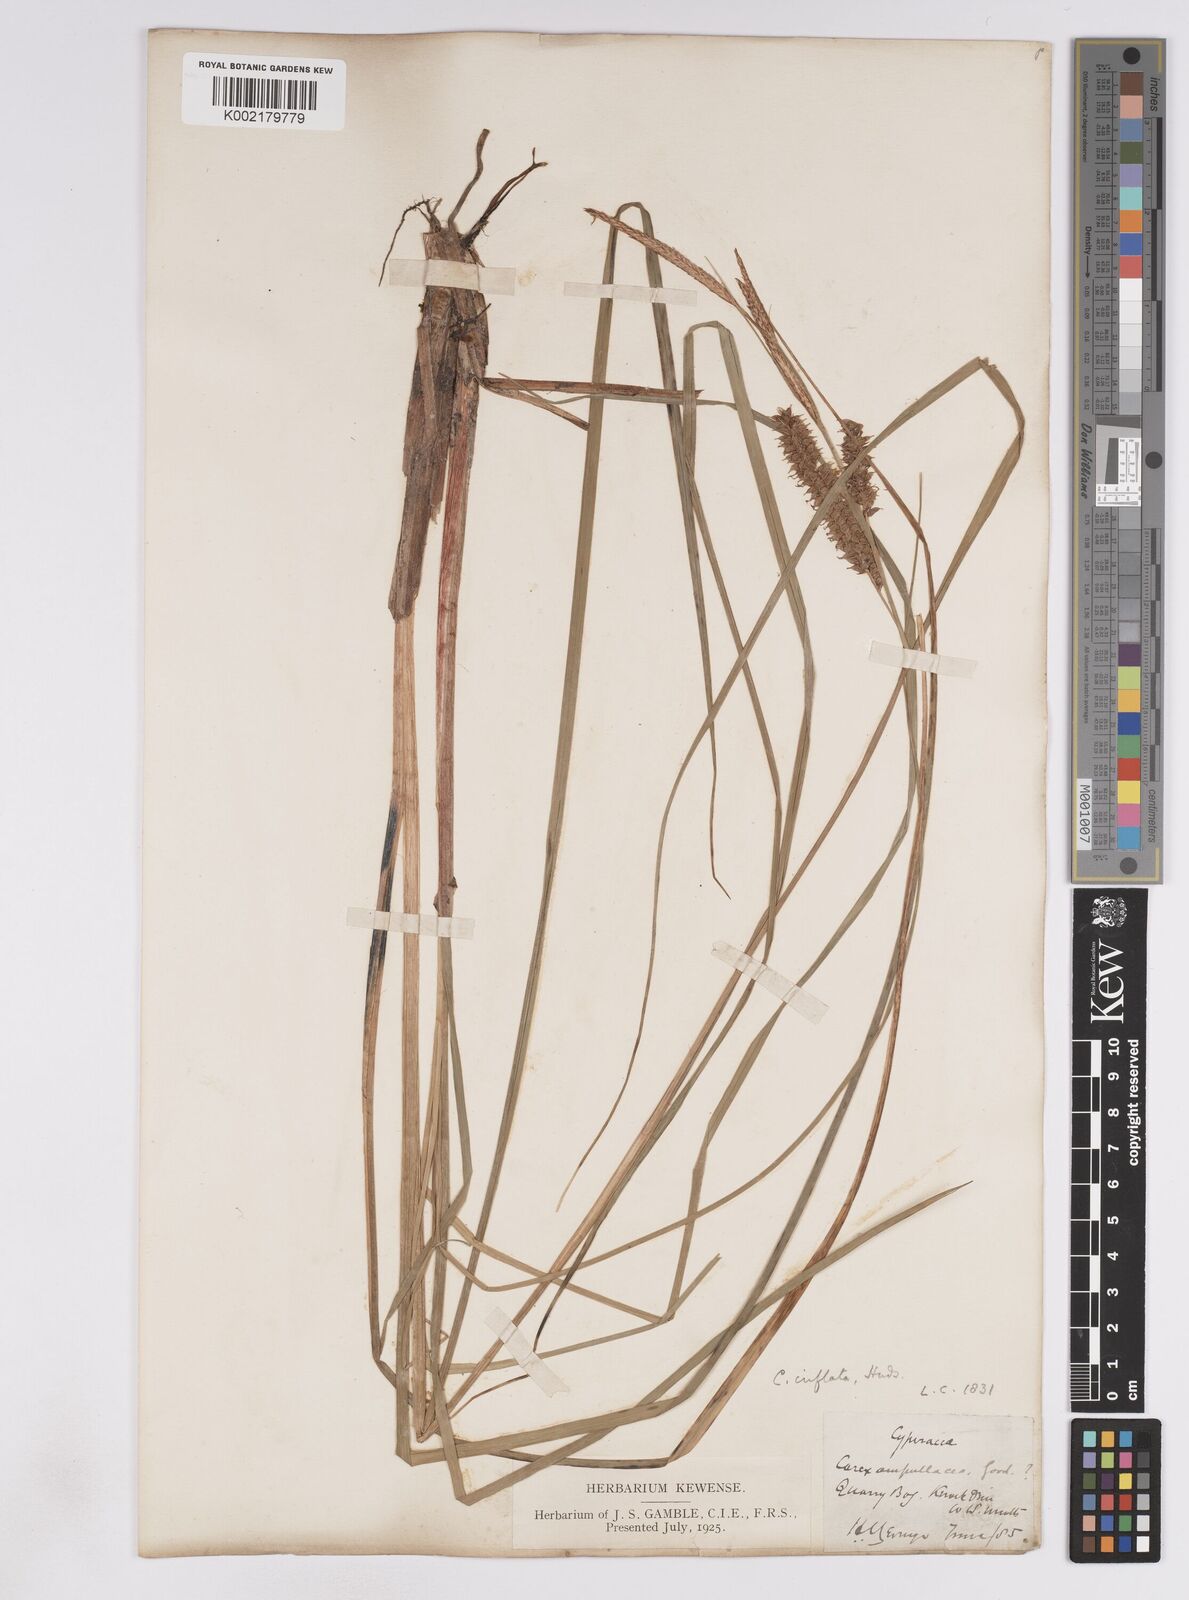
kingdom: Plantae
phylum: Tracheophyta
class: Liliopsida
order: Poales
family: Cyperaceae
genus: Carex
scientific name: Carex rostrata
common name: Bottle sedge
